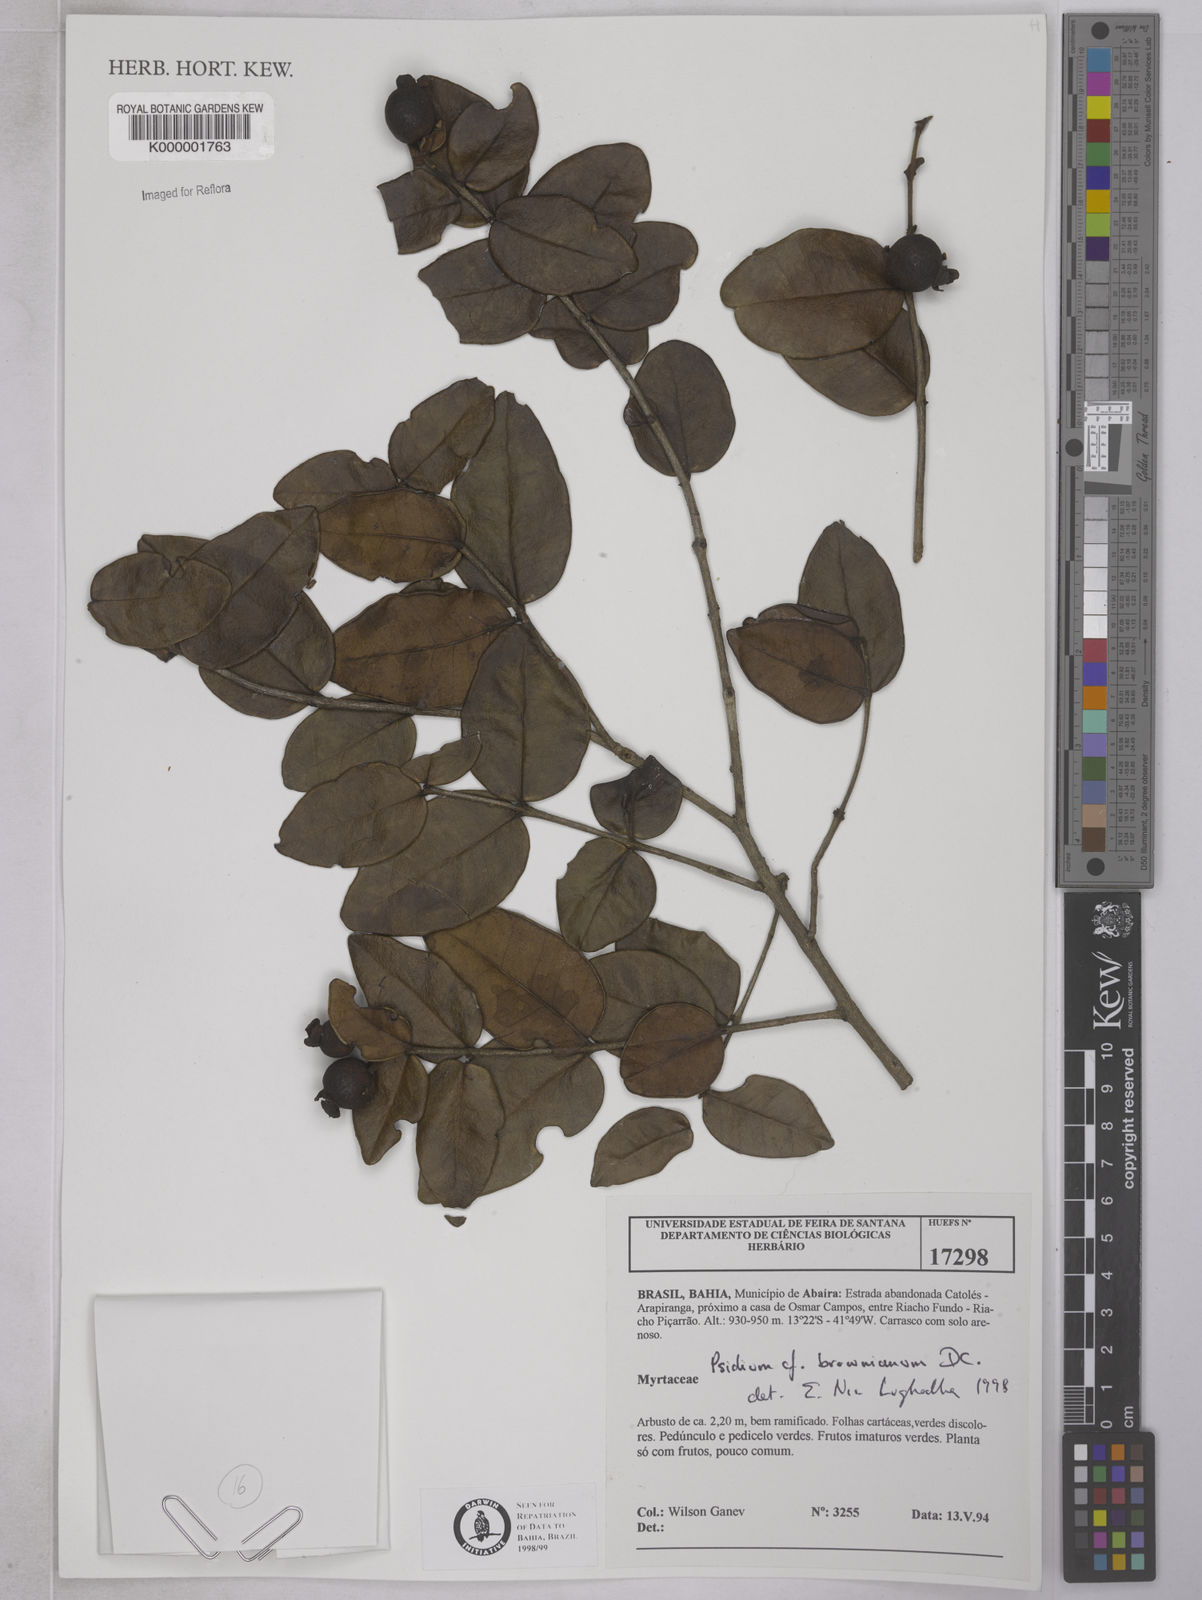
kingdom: Plantae
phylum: Tracheophyta
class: Magnoliopsida
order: Myrtales
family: Myrtaceae
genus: Psidium
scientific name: Psidium brownianum
